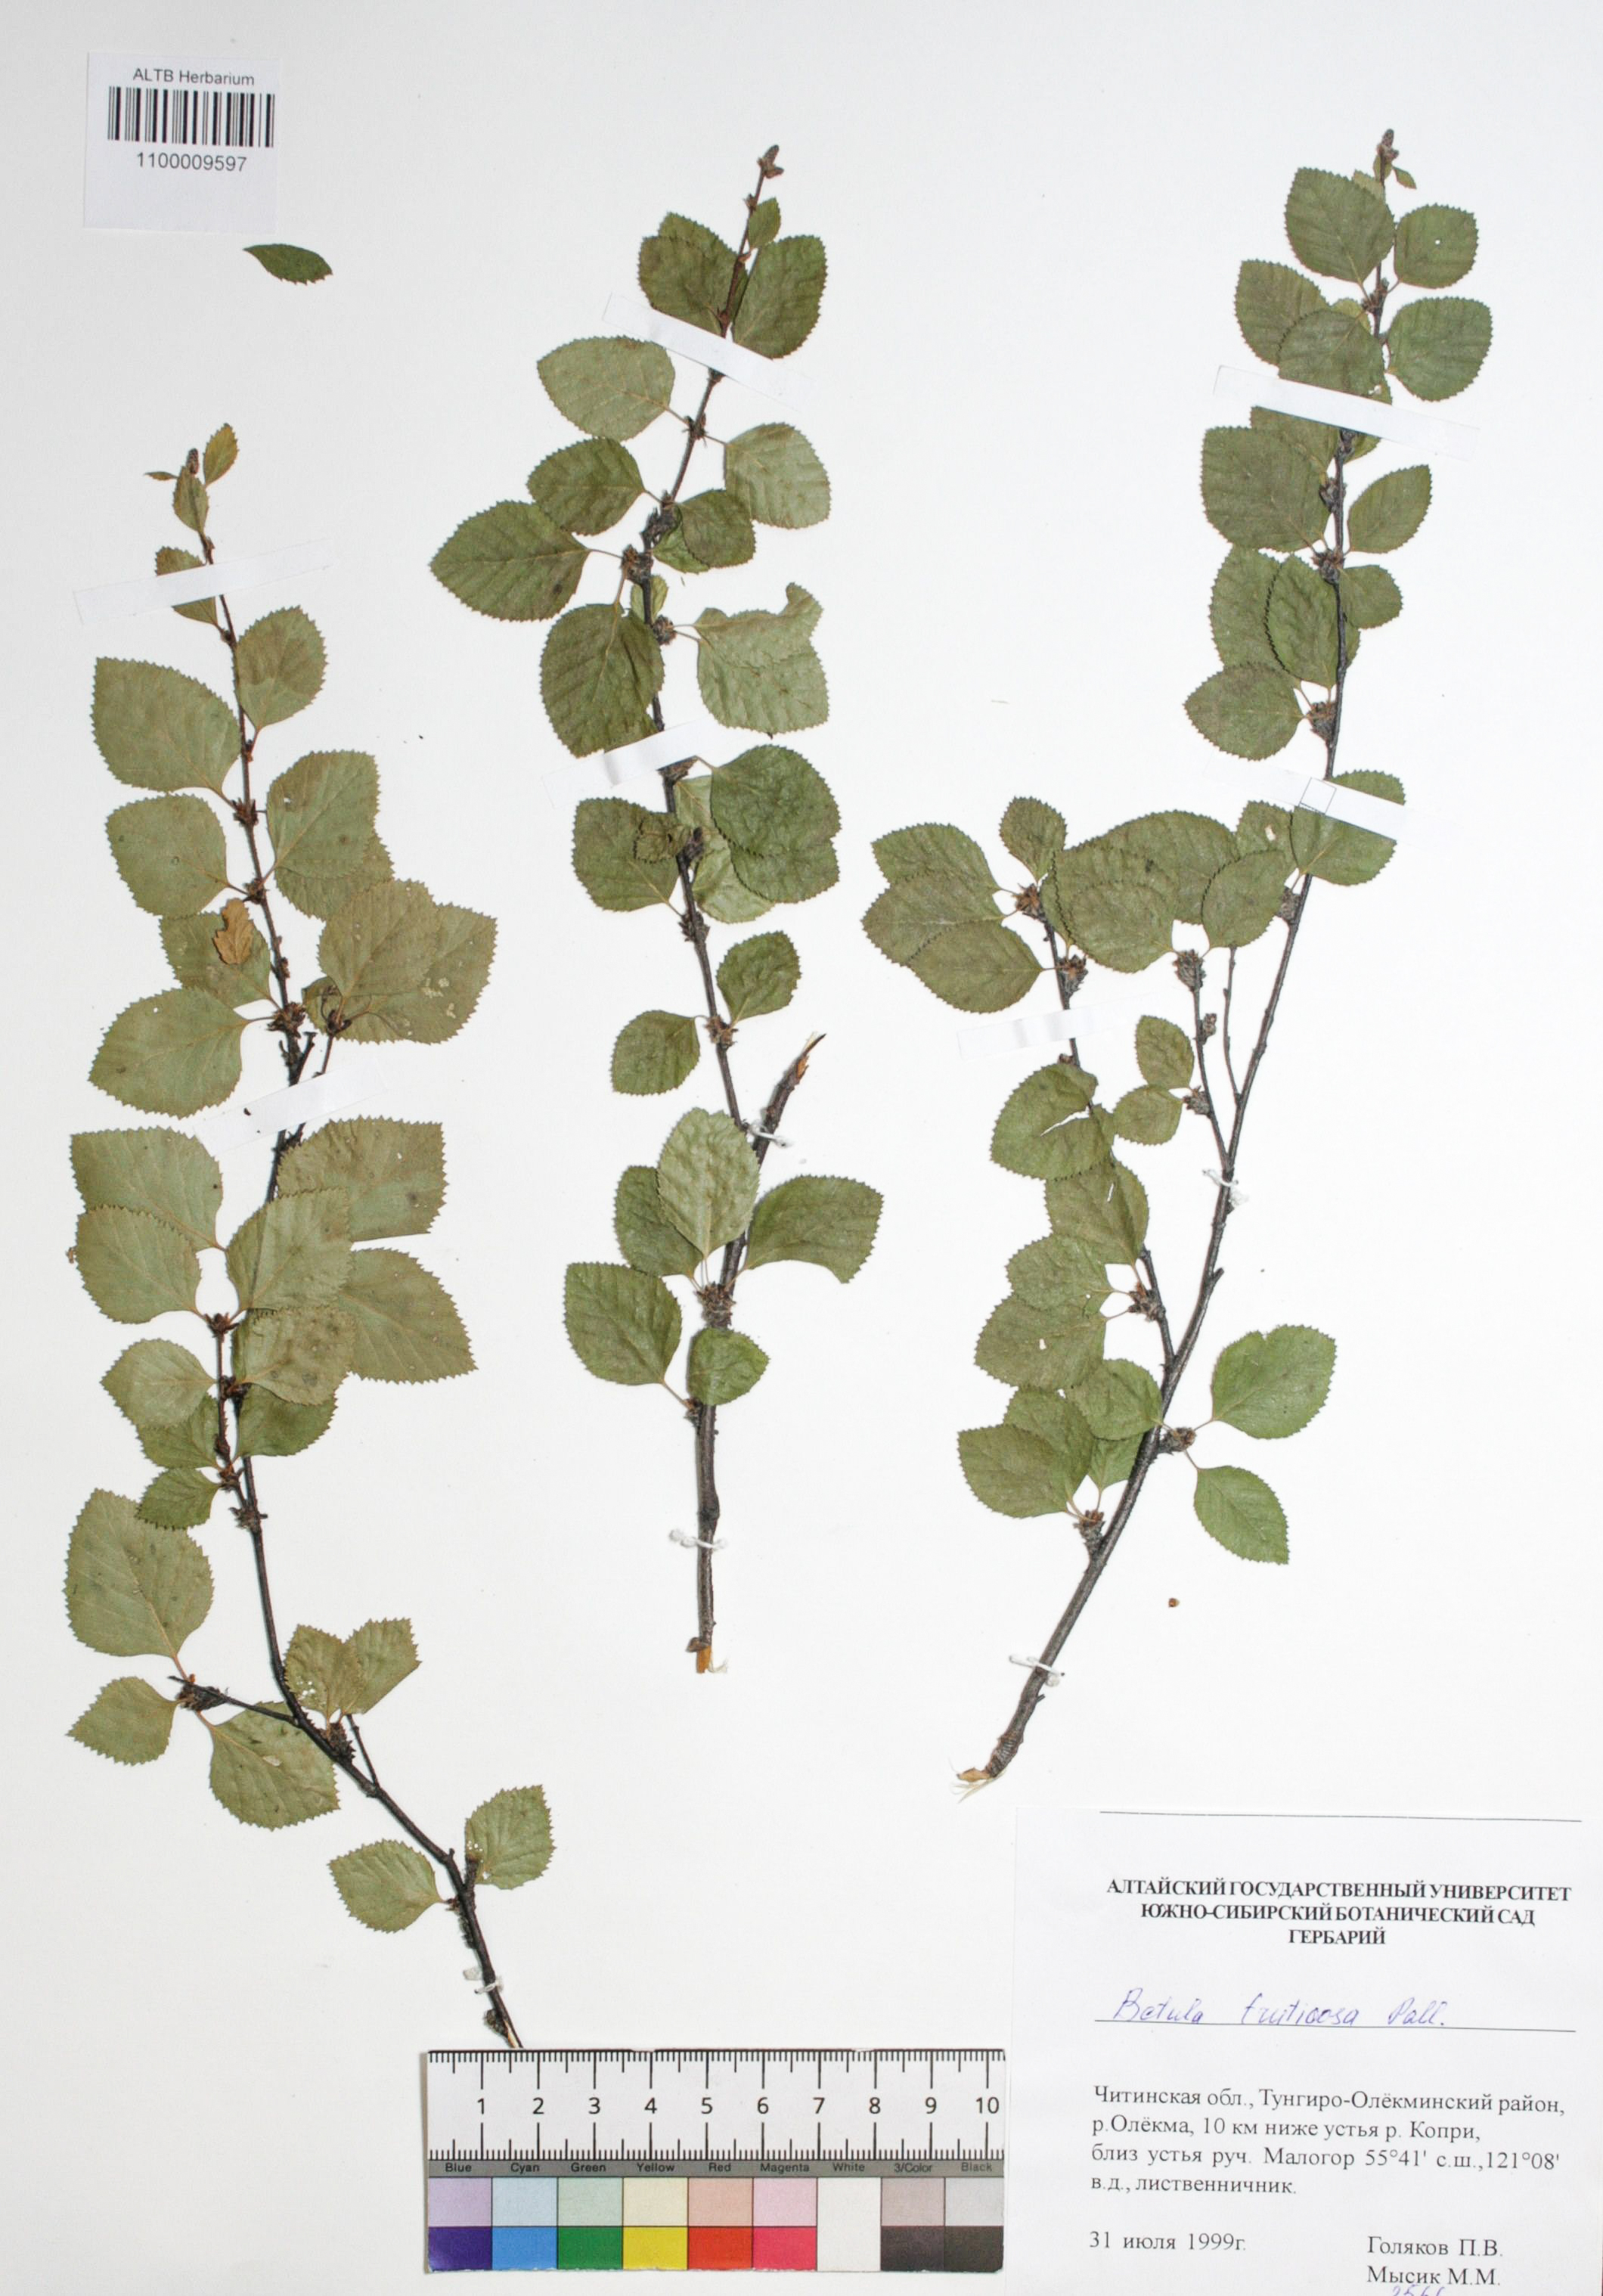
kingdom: Plantae
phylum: Tracheophyta
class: Magnoliopsida
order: Fagales
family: Betulaceae
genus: Betula
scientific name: Betula fruticosa
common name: Japanese bog birch
